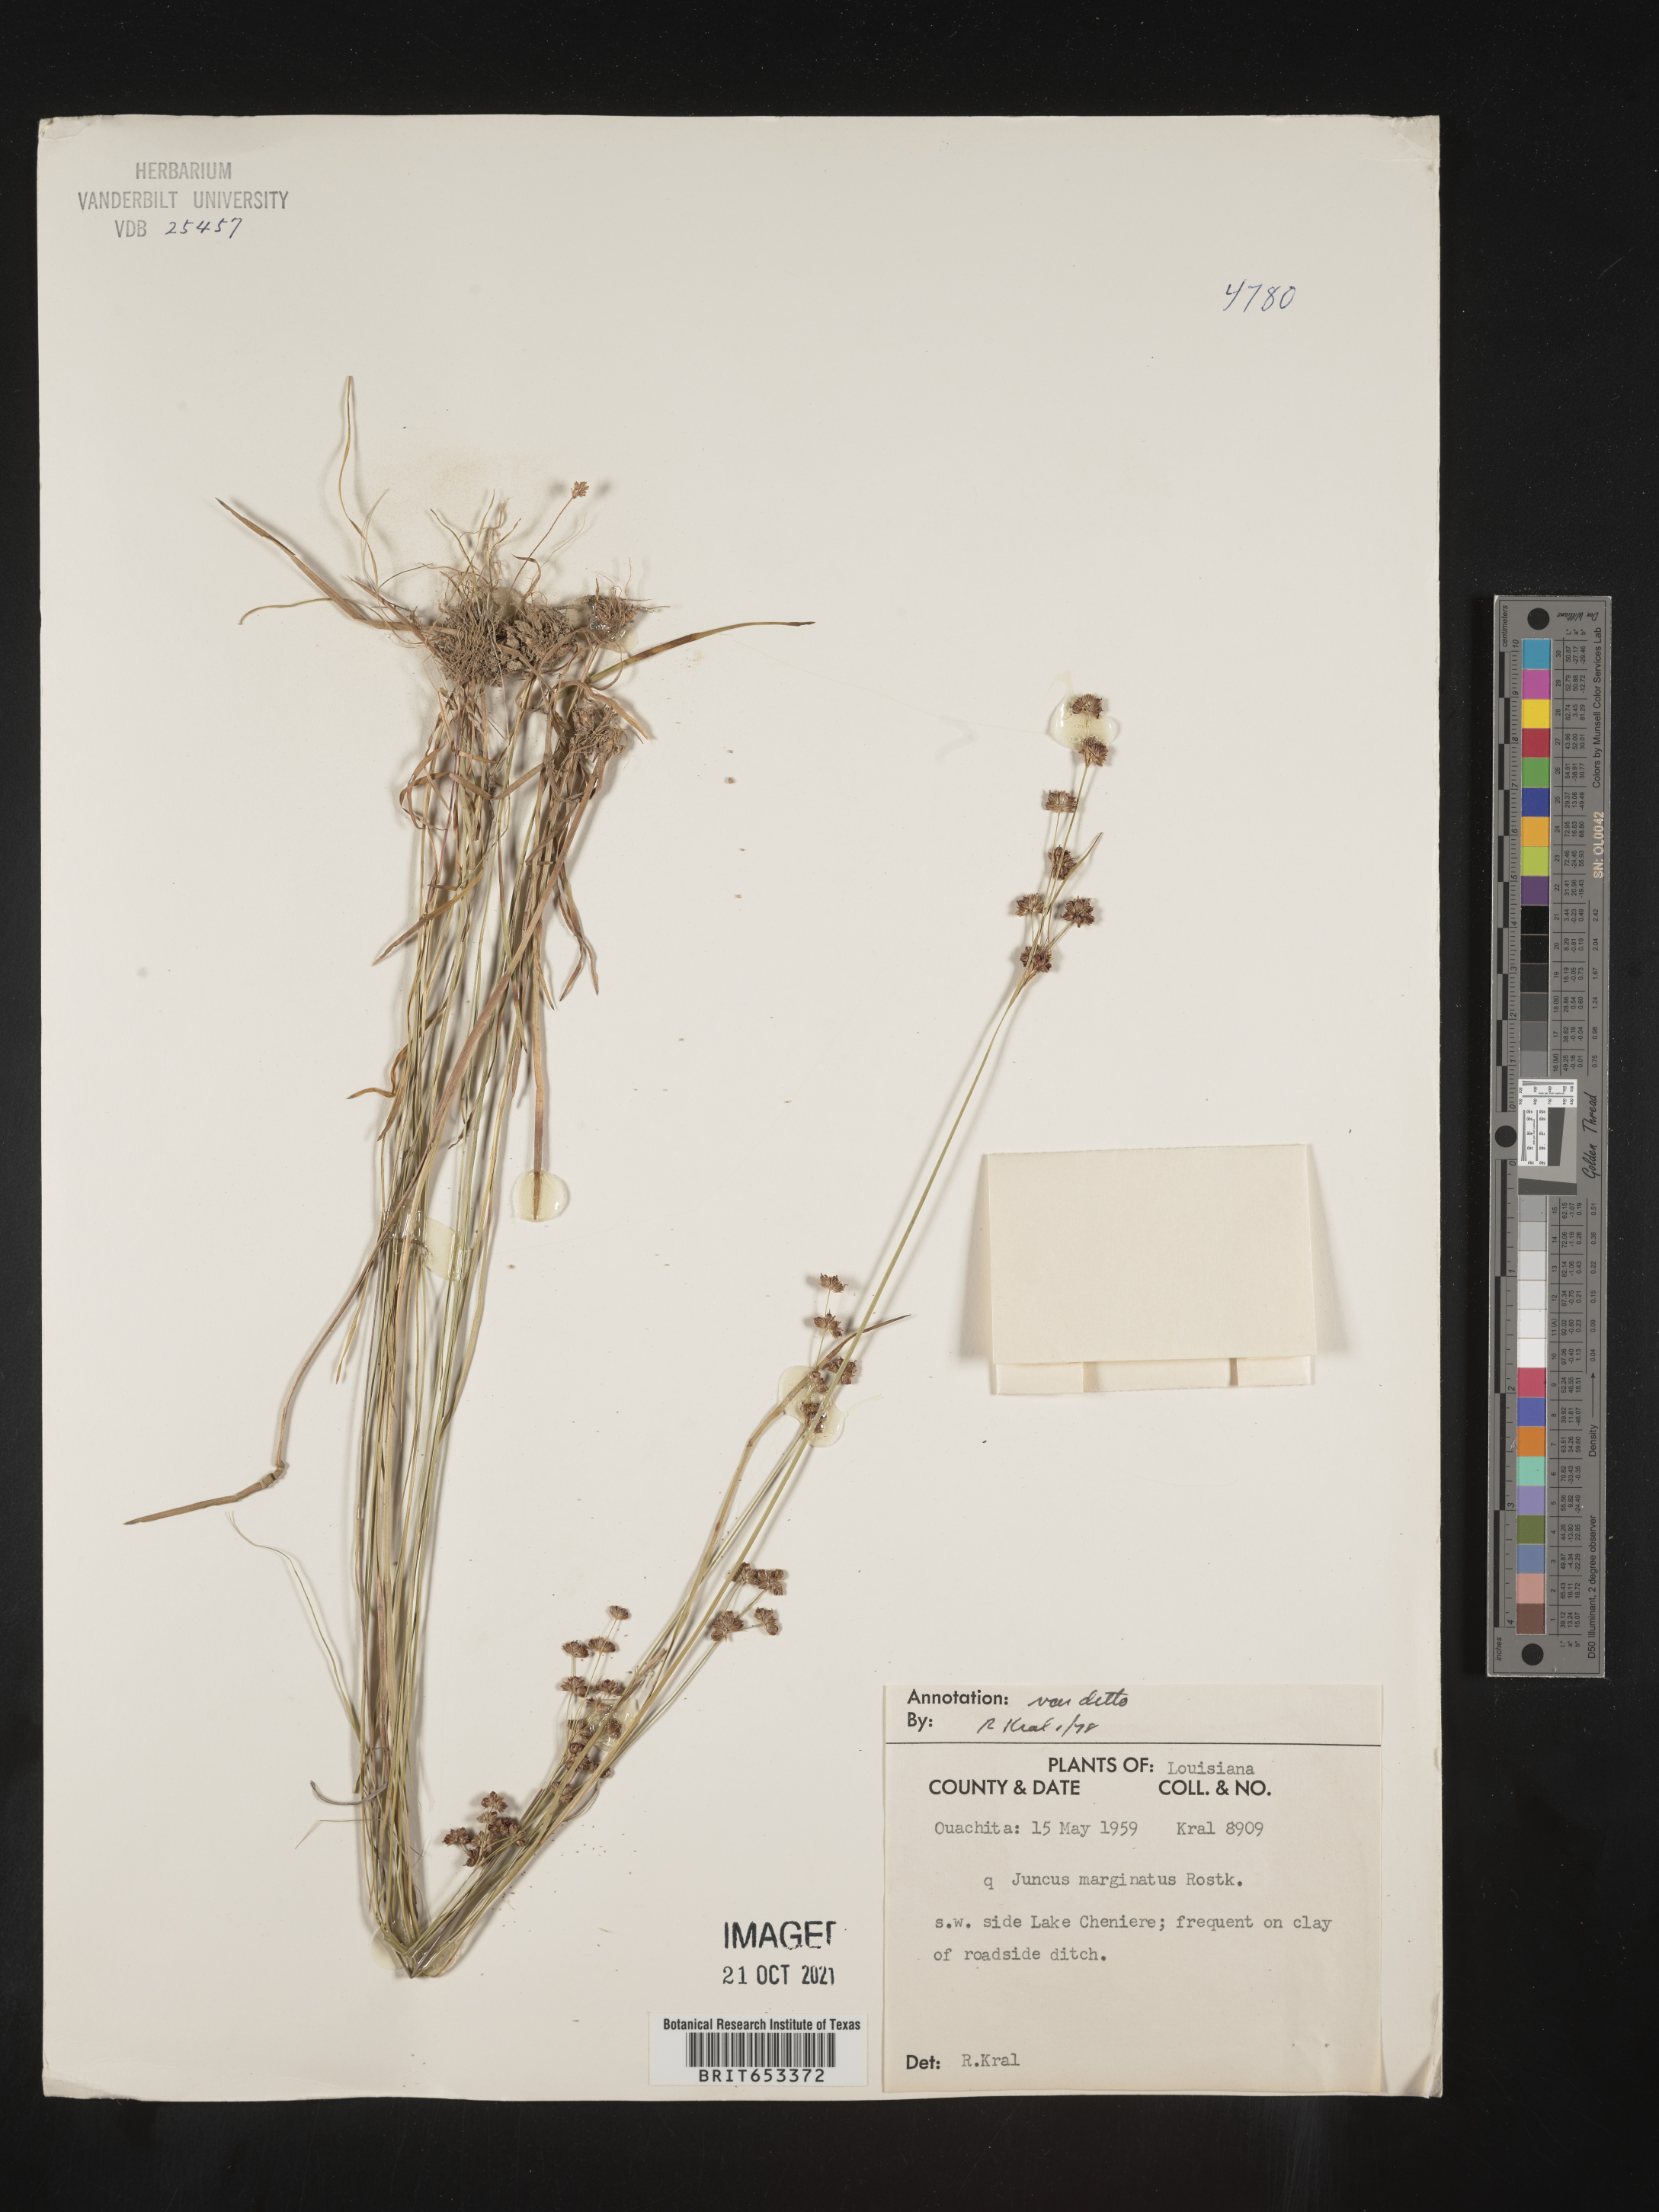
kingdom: Plantae
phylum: Tracheophyta
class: Liliopsida
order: Poales
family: Juncaceae
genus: Juncus
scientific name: Juncus marginatus
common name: Grass-leaf rush
